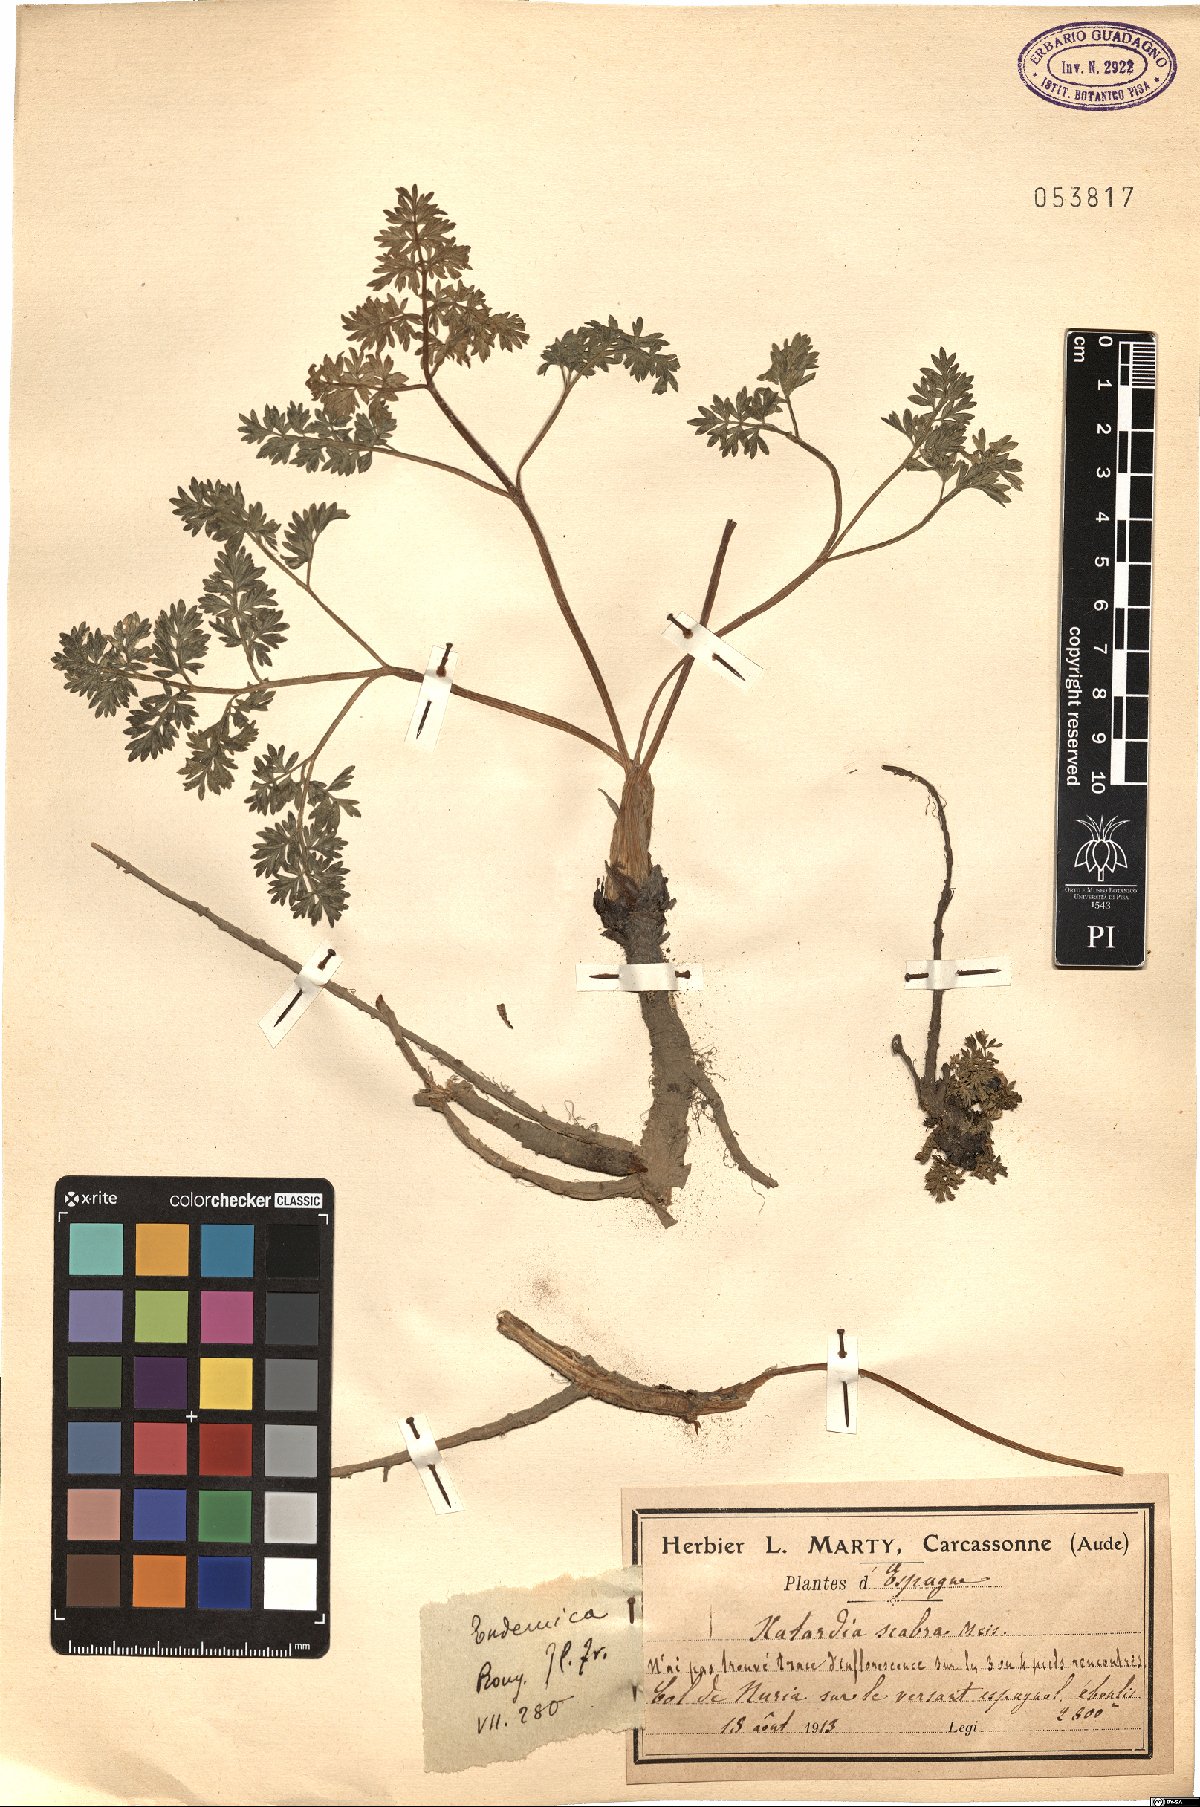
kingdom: Plantae
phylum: Tracheophyta
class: Magnoliopsida
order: Apiales
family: Apiaceae
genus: Xatardia
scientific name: Xatardia scabra
